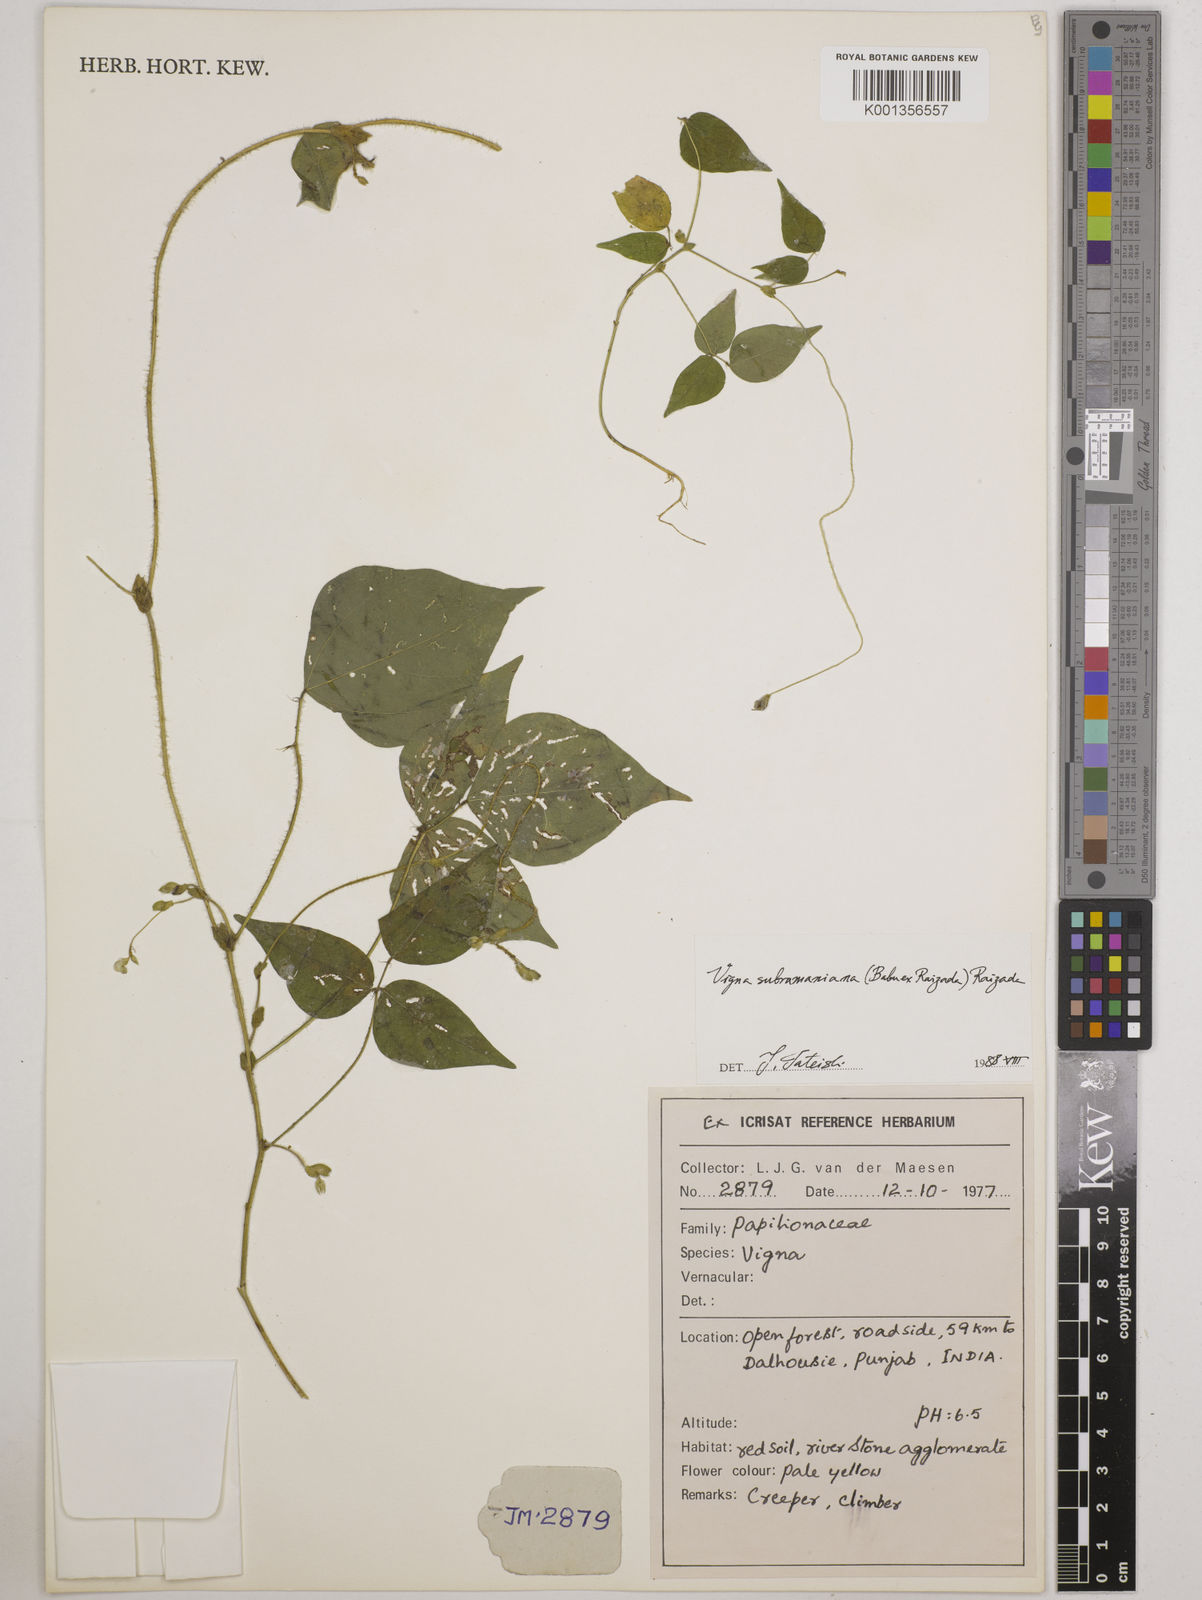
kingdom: Plantae
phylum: Tracheophyta
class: Magnoliopsida
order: Fabales
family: Fabaceae
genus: Vigna
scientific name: Vigna subramaniana
